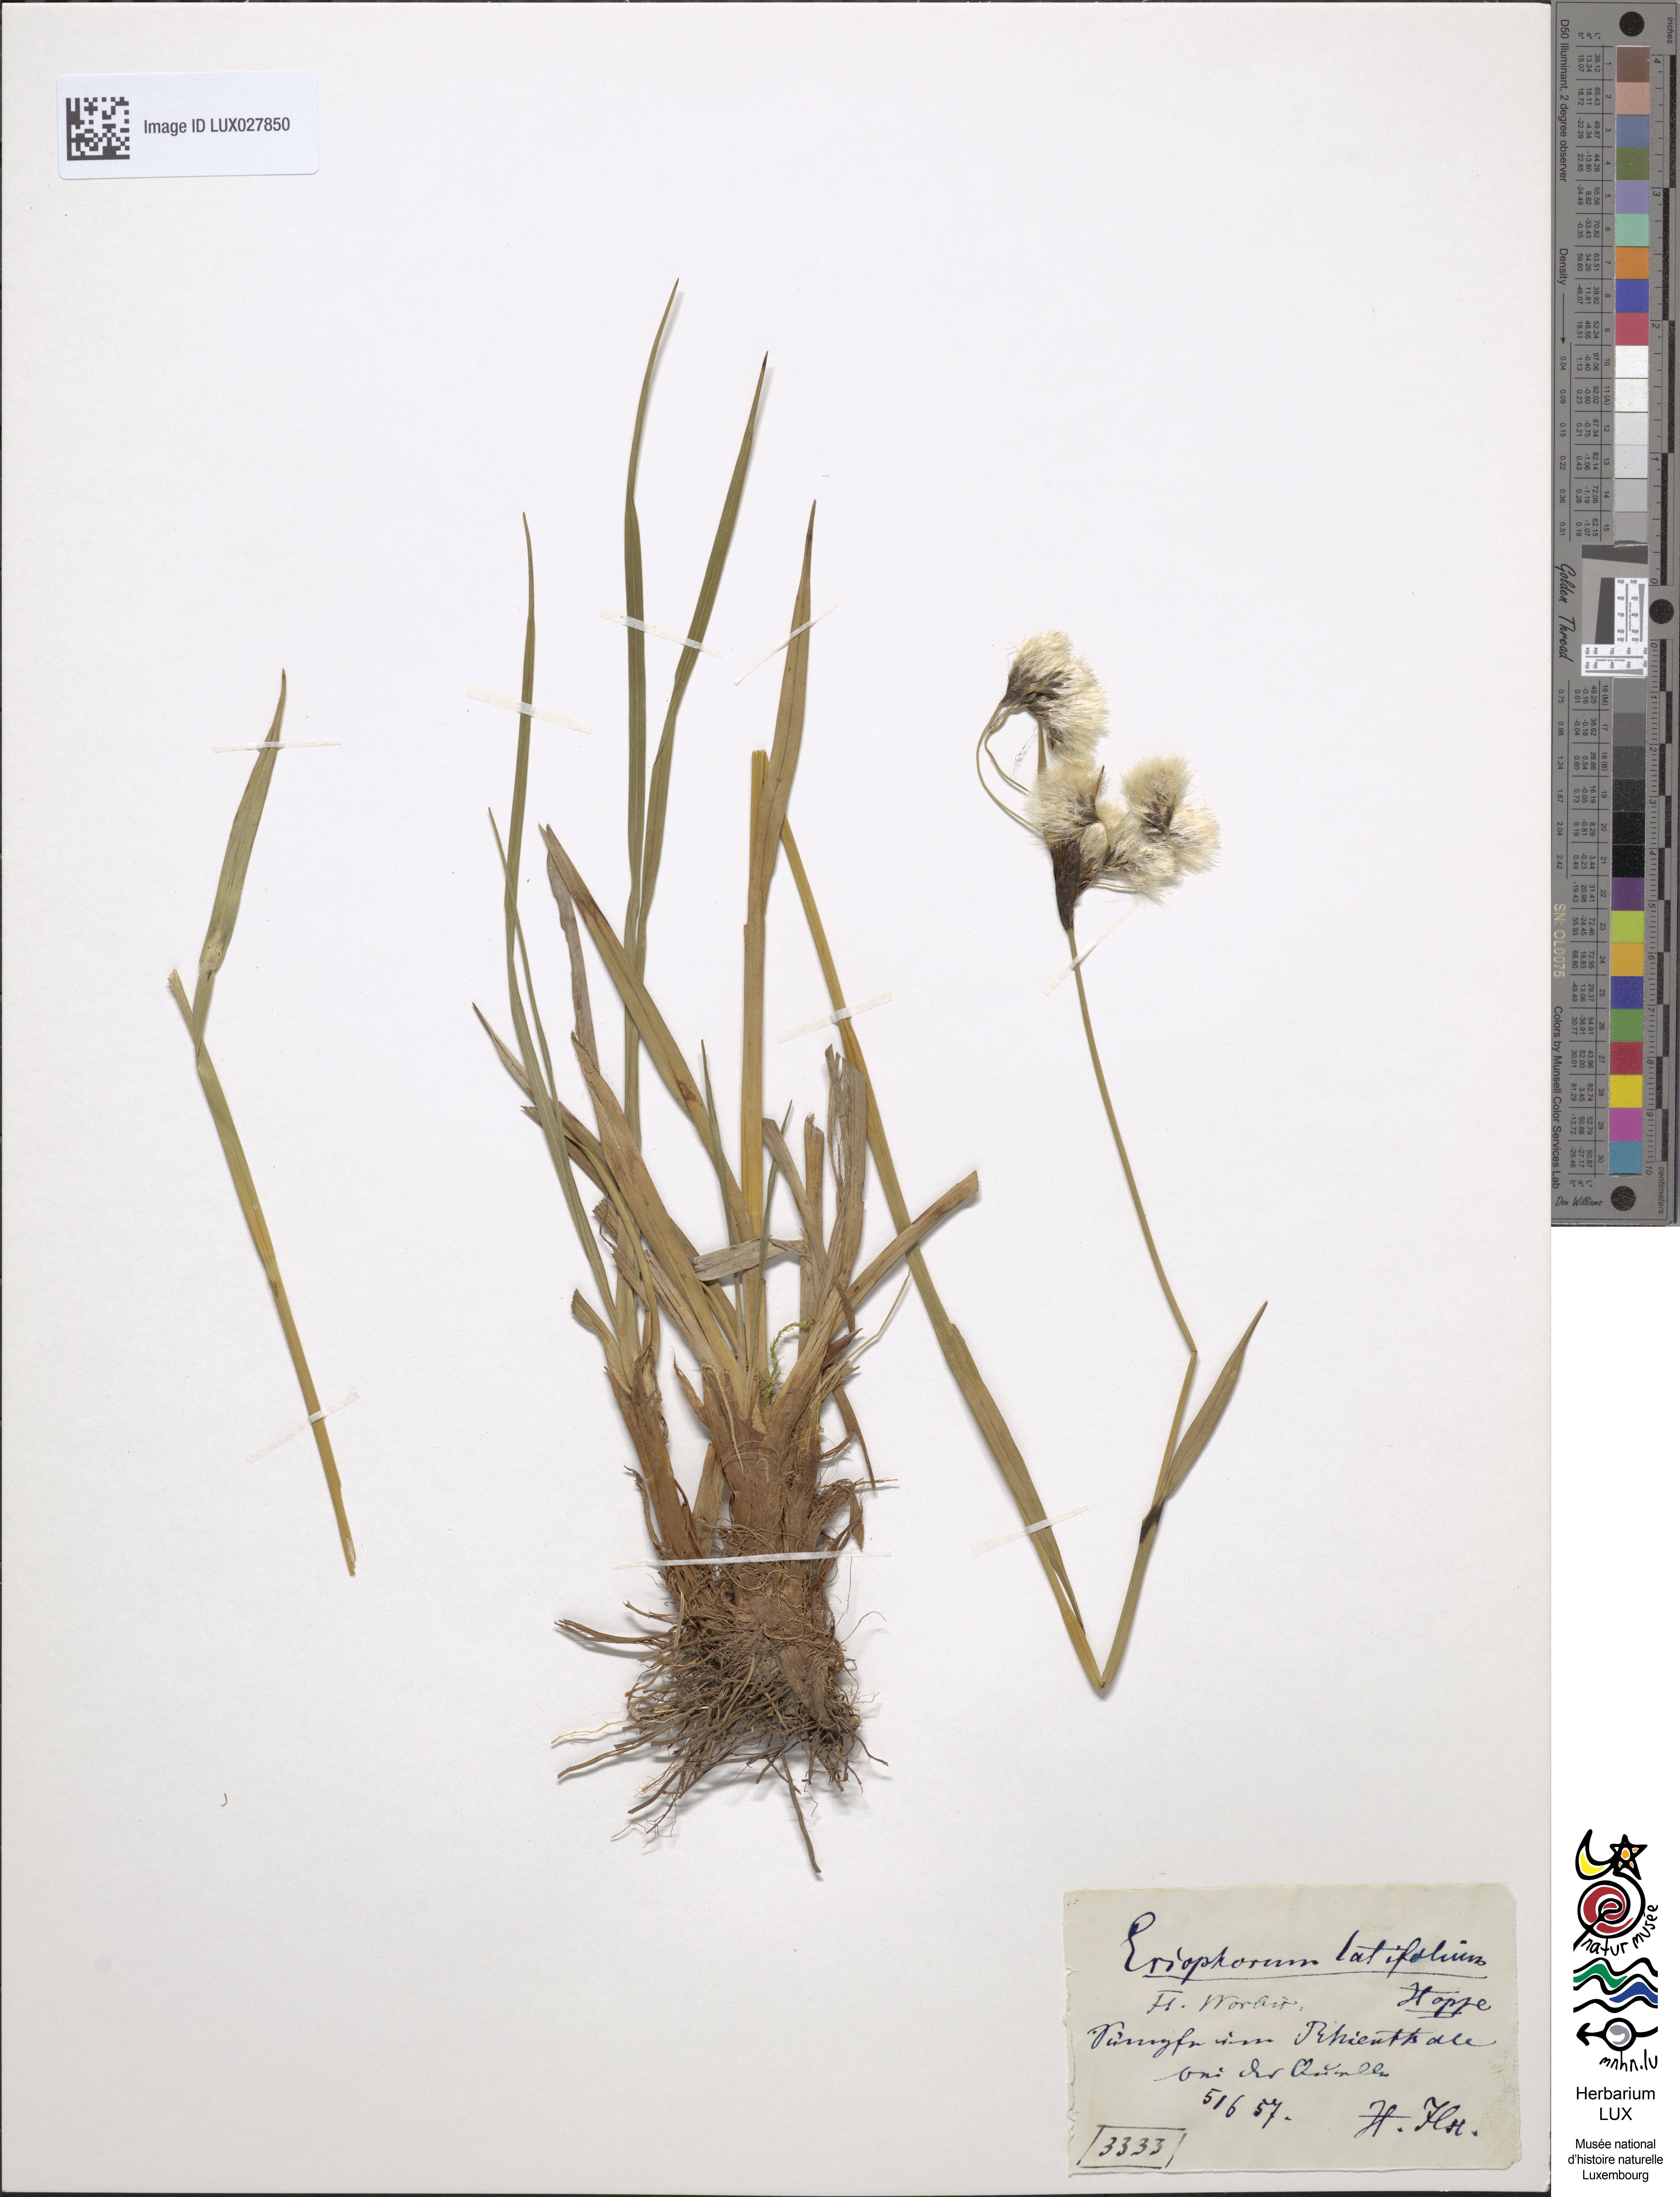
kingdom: Plantae
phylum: Tracheophyta
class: Liliopsida
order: Poales
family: Cyperaceae
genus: Eriophorum
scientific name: Eriophorum latifolium
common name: Broad-leaved cottongrass
